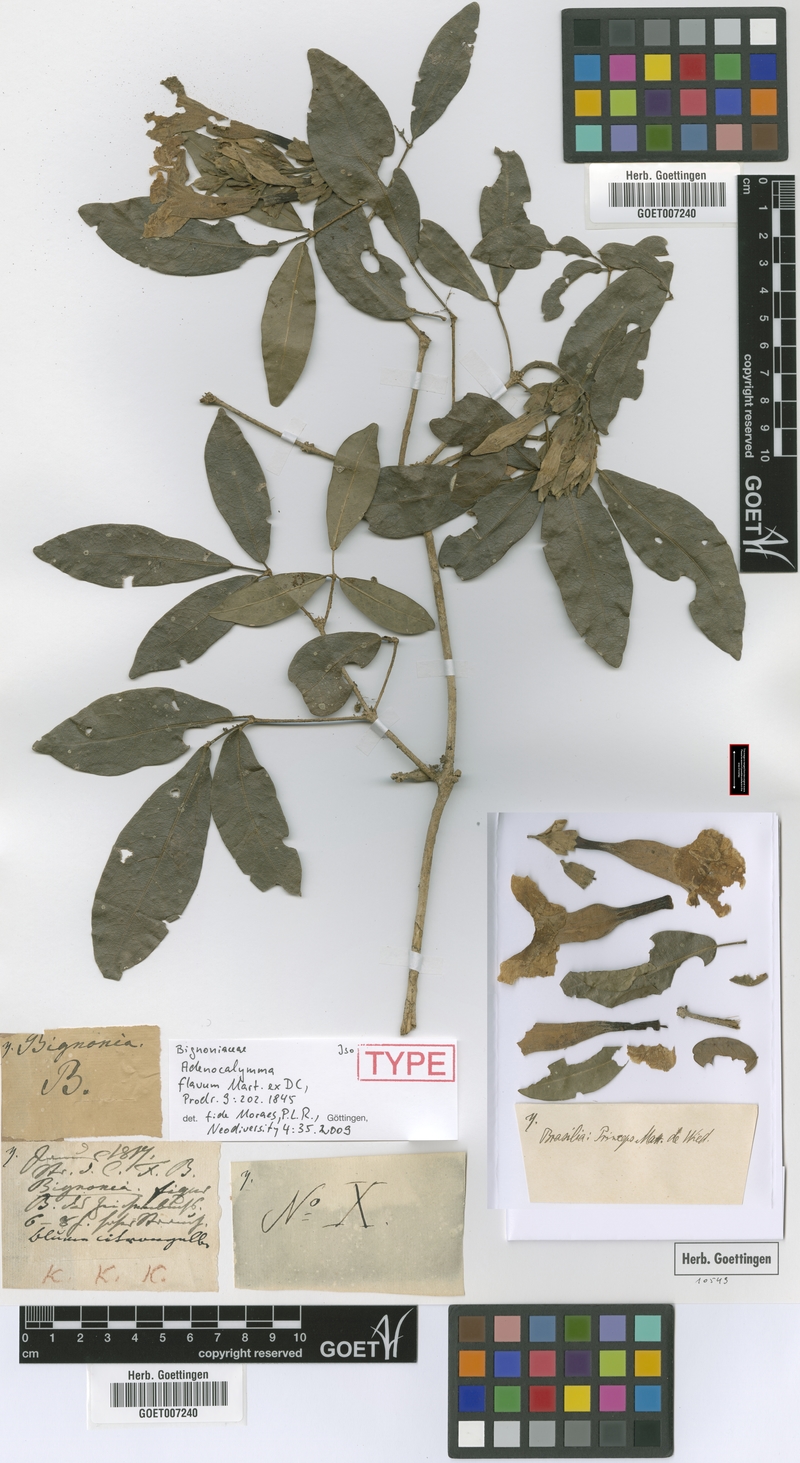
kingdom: Plantae
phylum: Tracheophyta
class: Magnoliopsida
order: Lamiales
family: Bignoniaceae
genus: Adenocalymma
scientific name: Adenocalymma flavum
